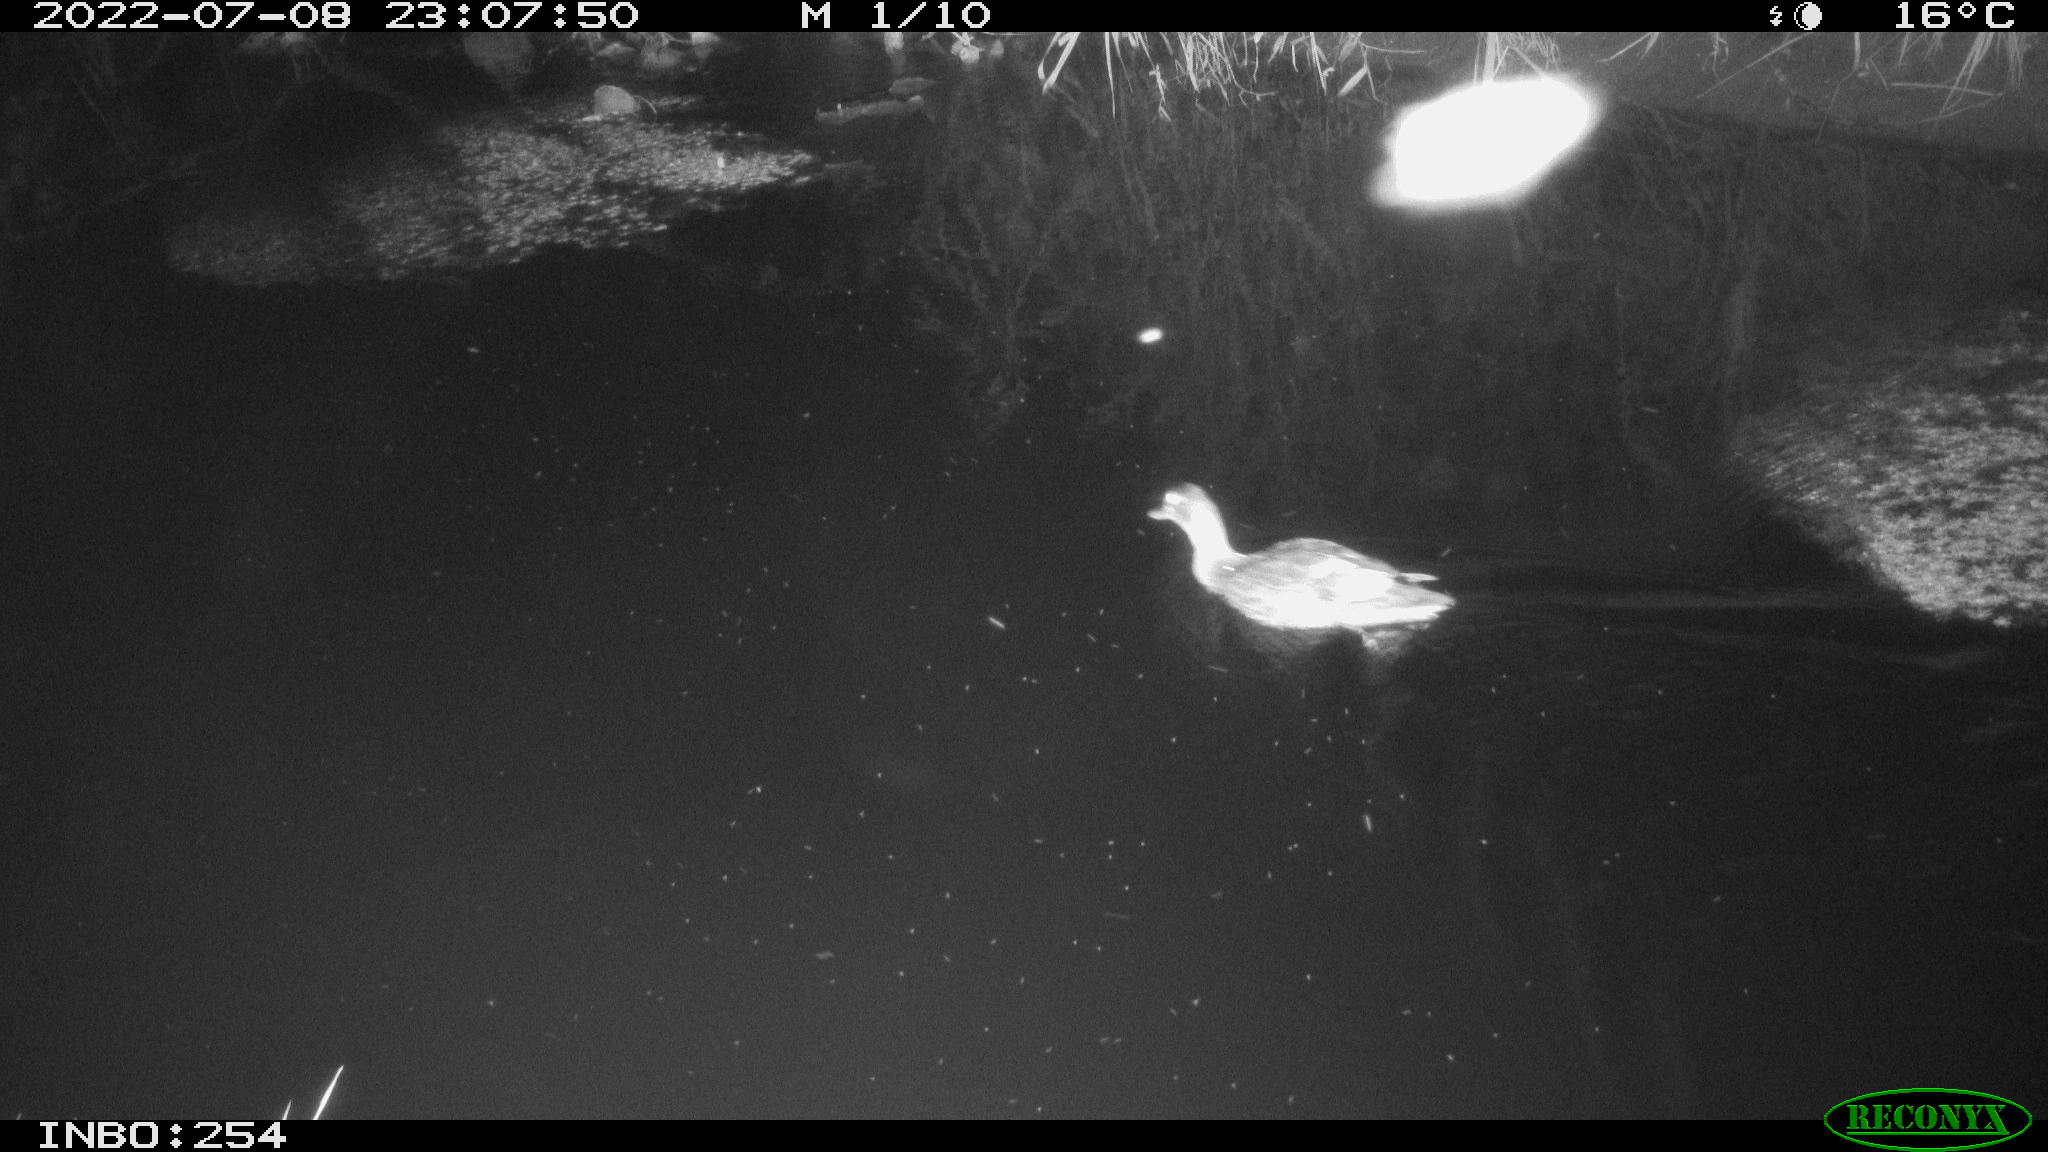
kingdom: Animalia
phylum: Chordata
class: Aves
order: Anseriformes
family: Anatidae
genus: Anas
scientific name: Anas platyrhynchos
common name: Mallard
